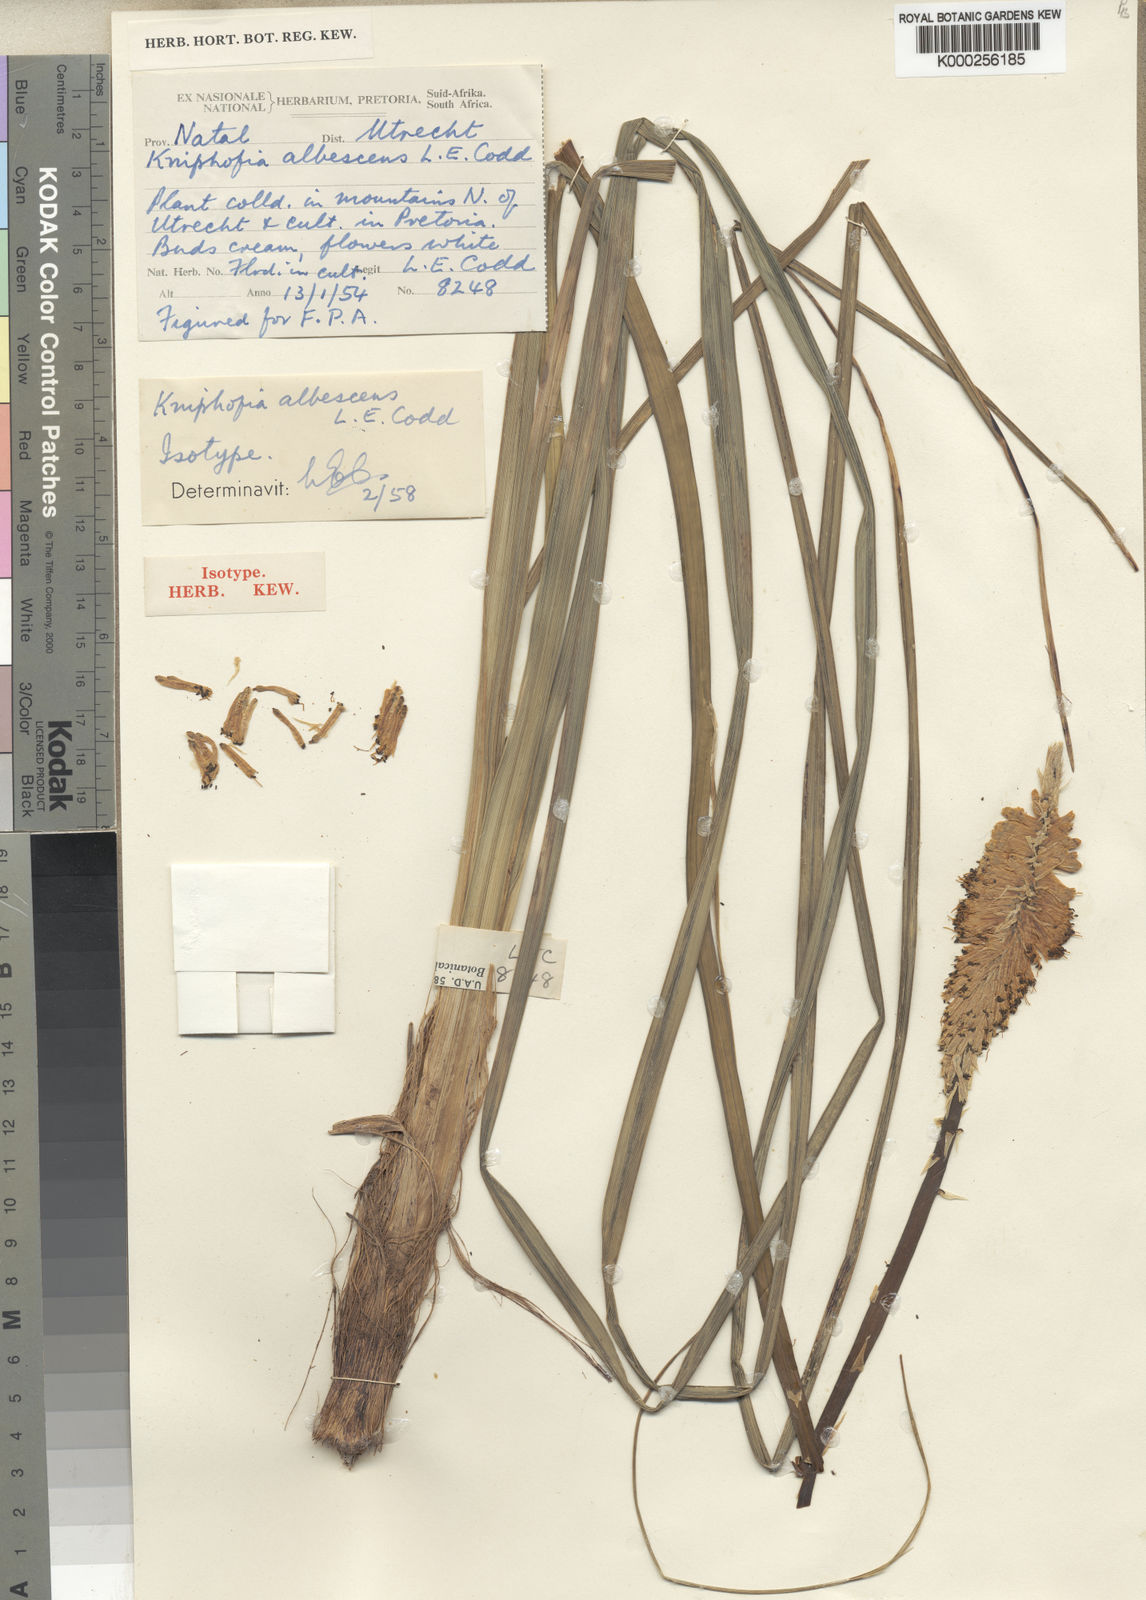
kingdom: Plantae
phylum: Tracheophyta
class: Liliopsida
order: Asparagales
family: Asphodelaceae
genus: Kniphofia
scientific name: Kniphofia albescens
